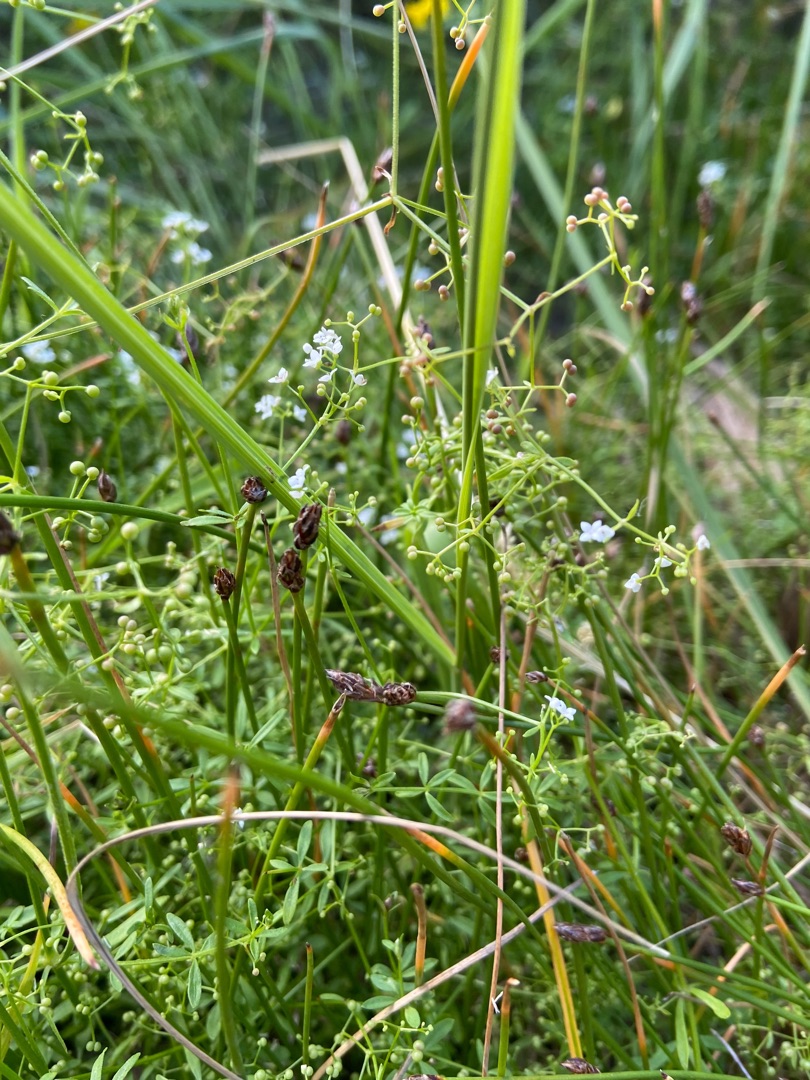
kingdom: Plantae
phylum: Tracheophyta
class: Liliopsida
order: Poales
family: Cyperaceae
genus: Eleocharis
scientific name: Eleocharis palustris
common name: Almindelig sumpstrå
